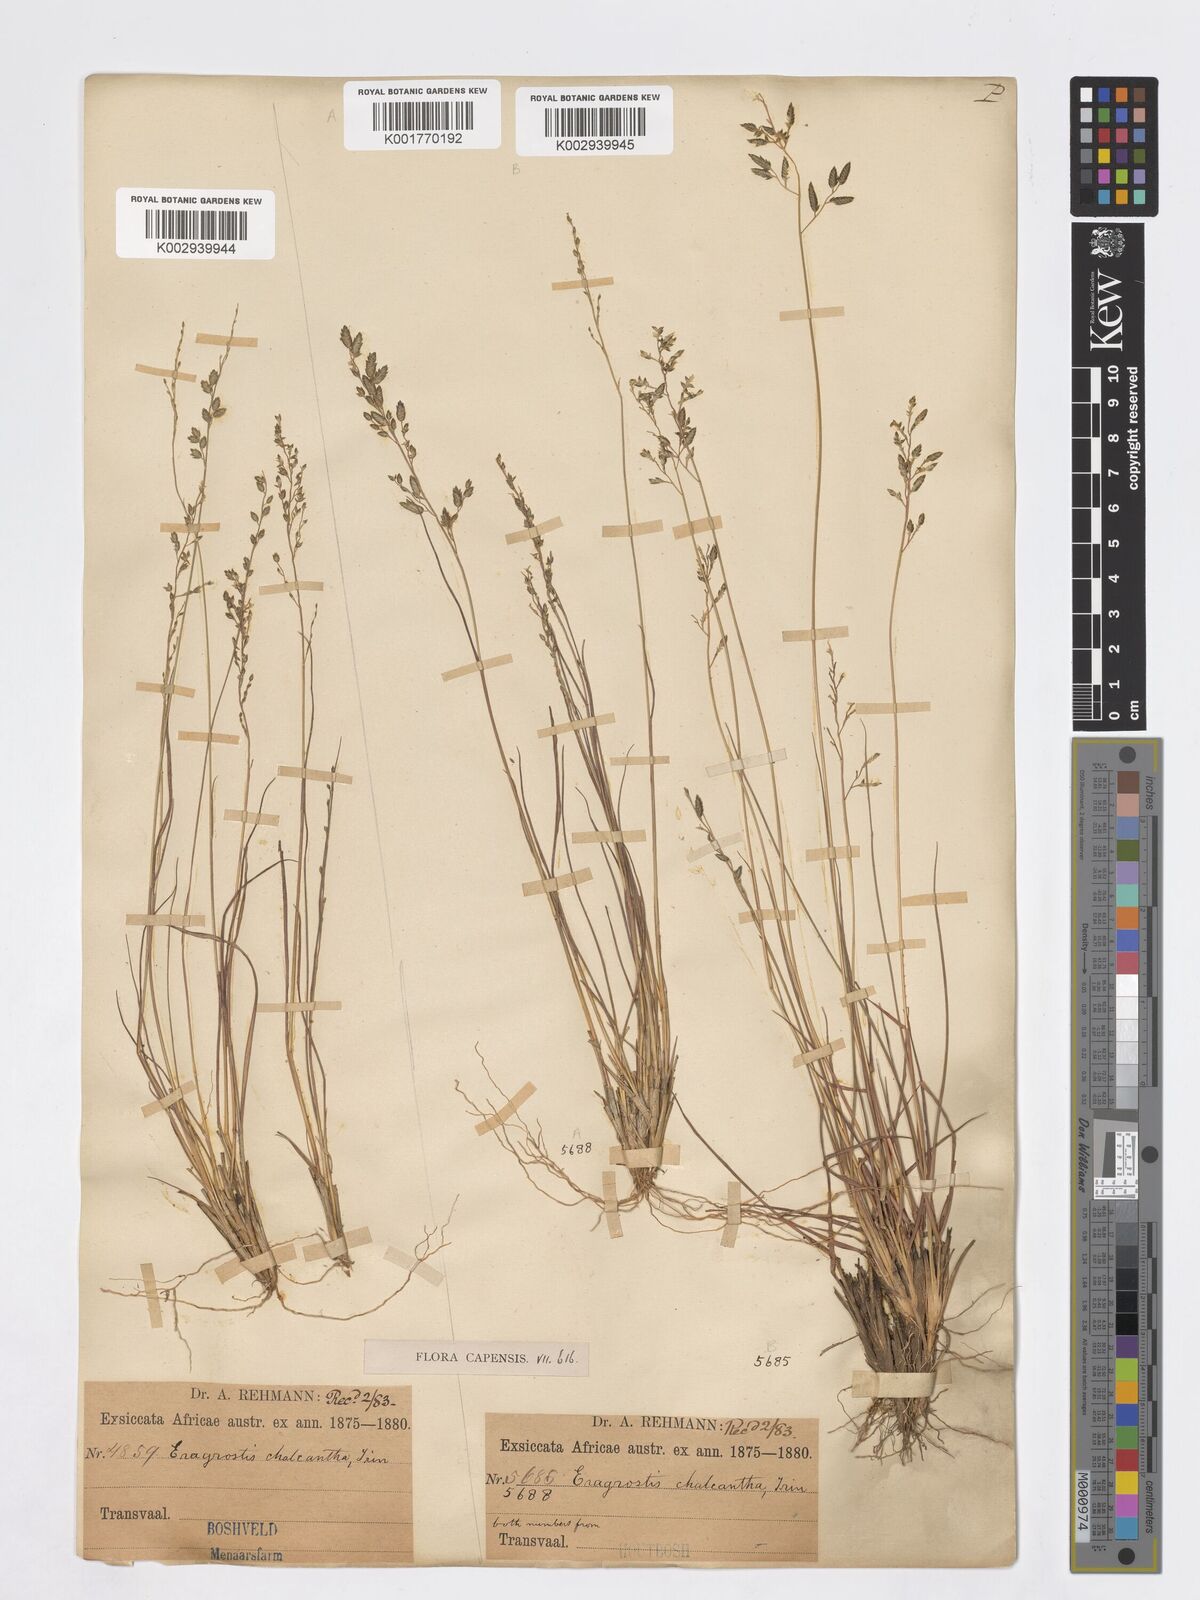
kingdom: Plantae
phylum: Tracheophyta
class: Liliopsida
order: Poales
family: Poaceae
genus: Eragrostis
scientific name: Eragrostis racemosa
